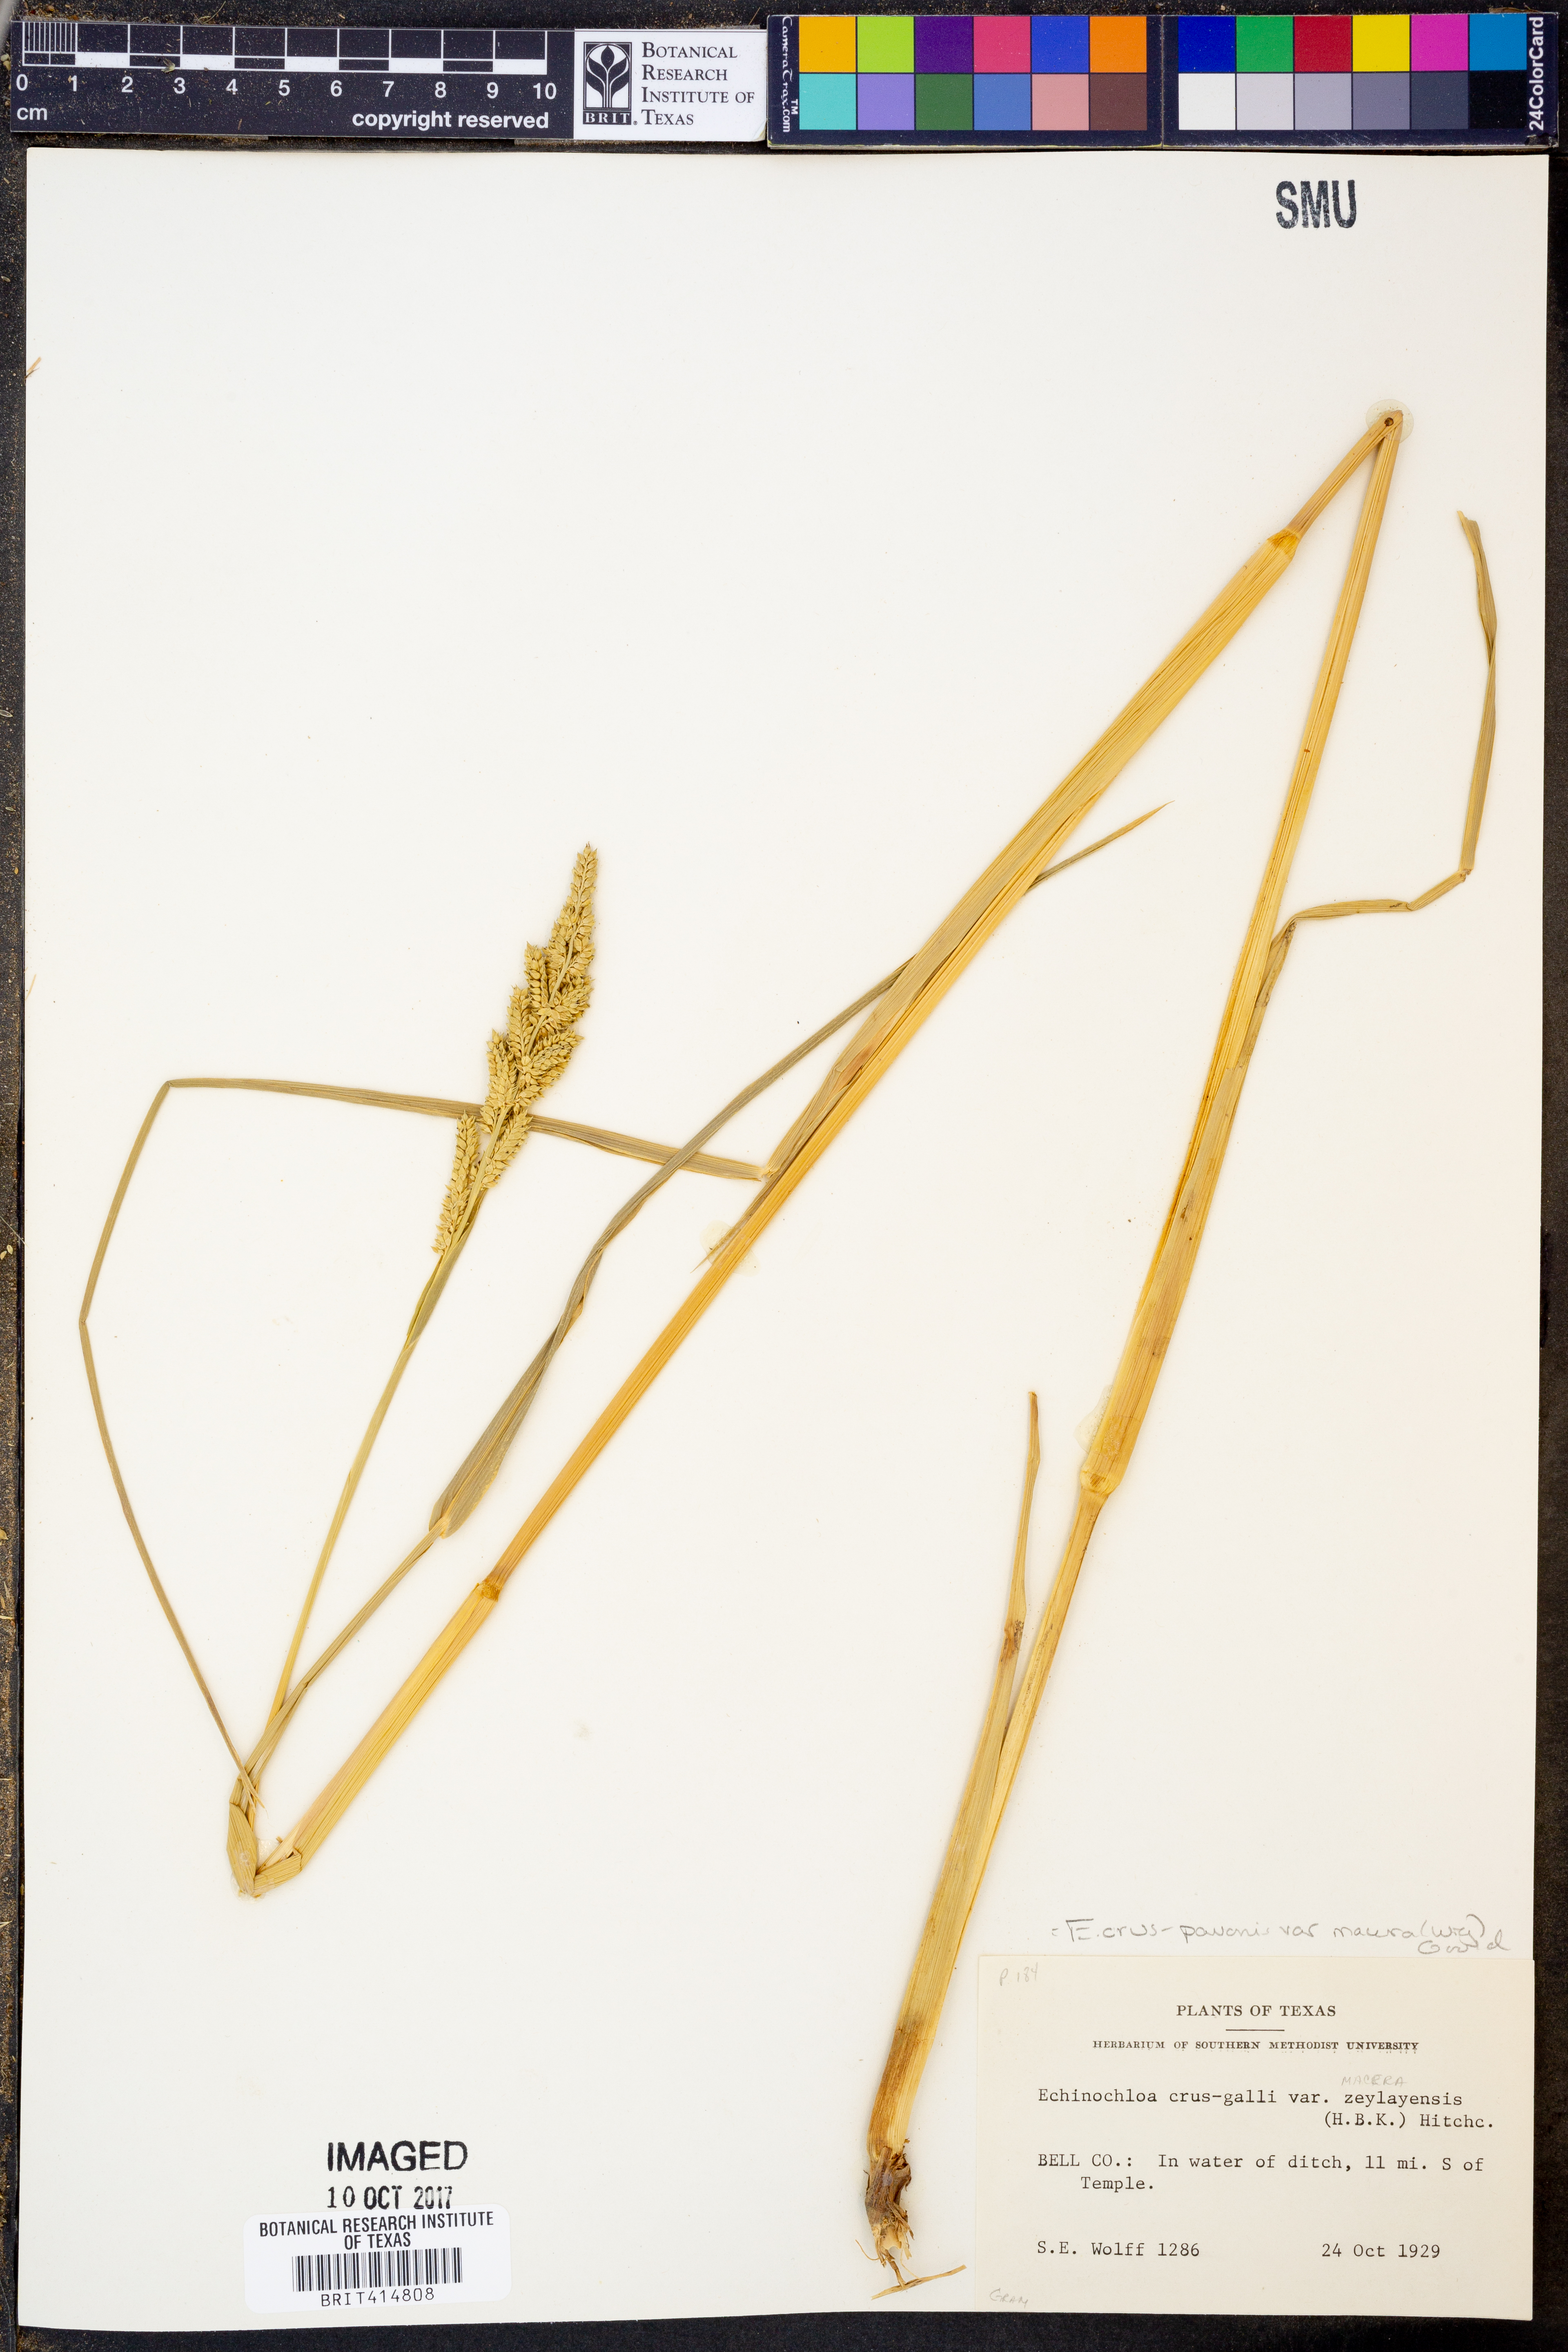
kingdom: Plantae
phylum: Tracheophyta
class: Liliopsida
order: Poales
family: Poaceae
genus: Echinochloa
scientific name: Echinochloa crus-pavonis
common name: Gulf cockspur grass
